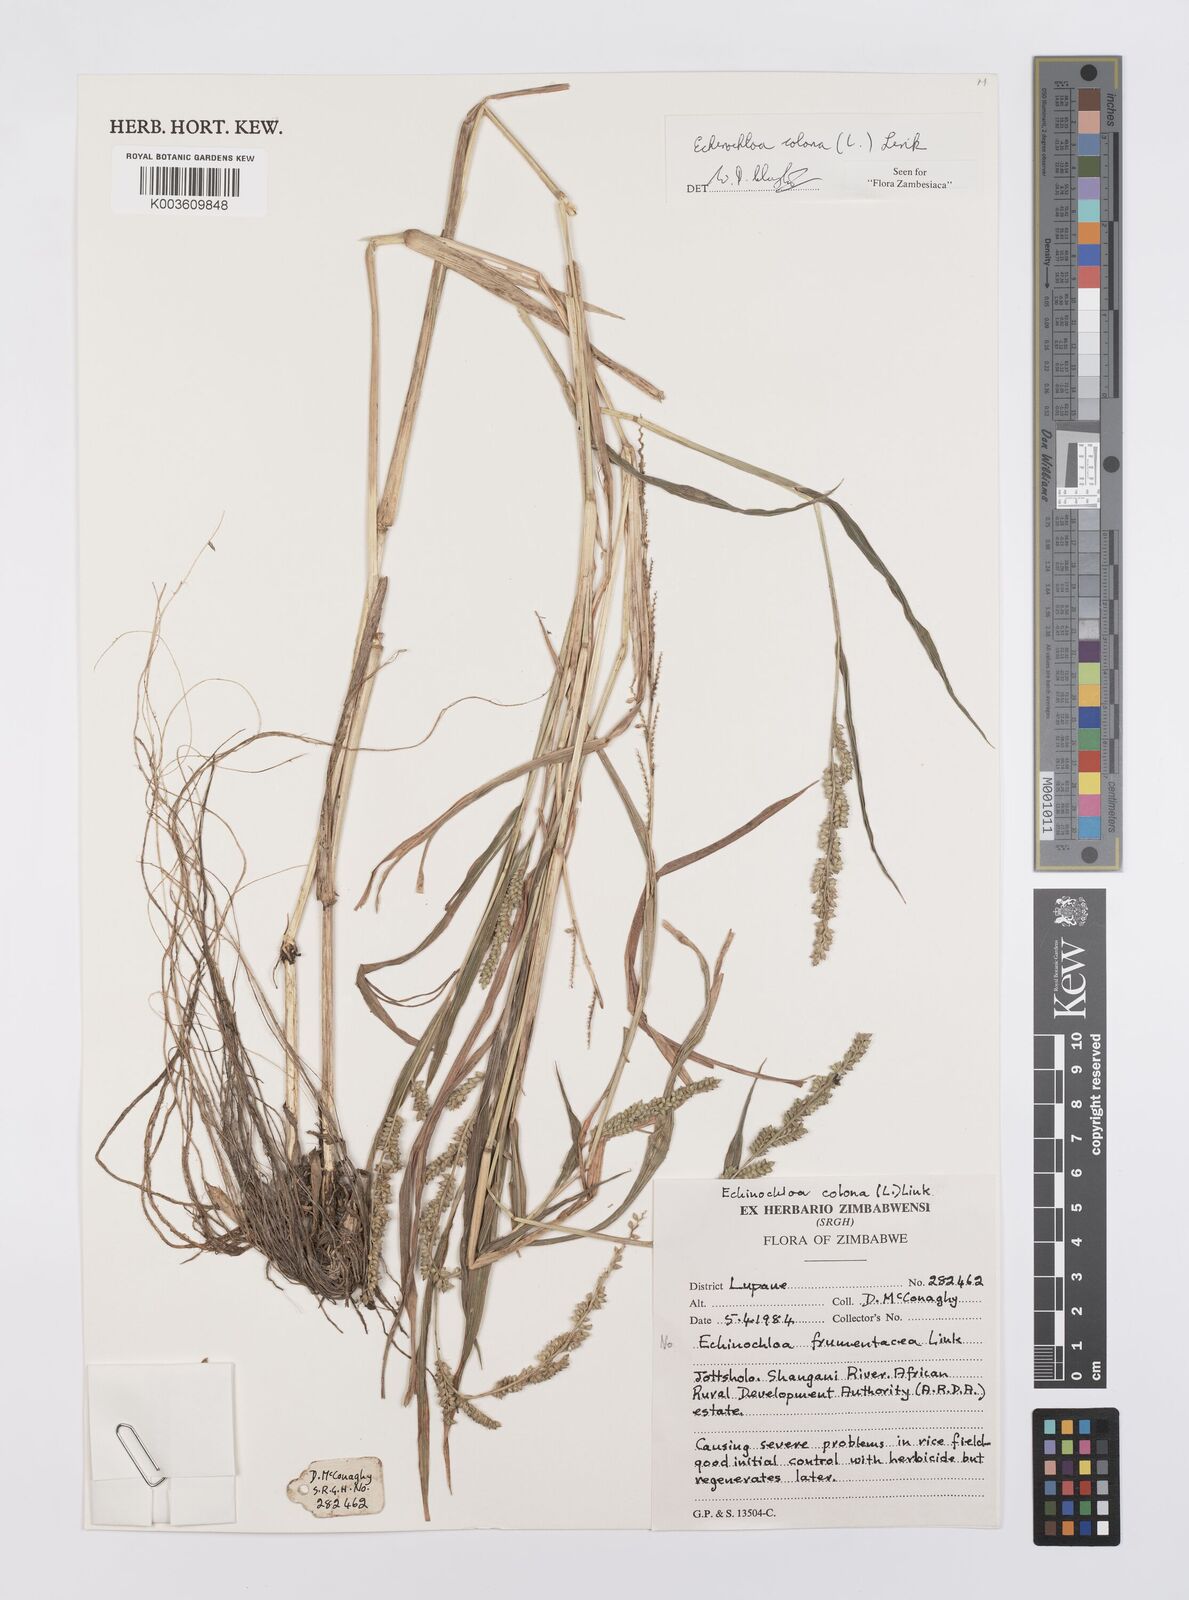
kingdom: Plantae
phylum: Tracheophyta
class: Liliopsida
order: Poales
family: Poaceae
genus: Echinochloa
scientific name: Echinochloa colonum
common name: Jungle rice
